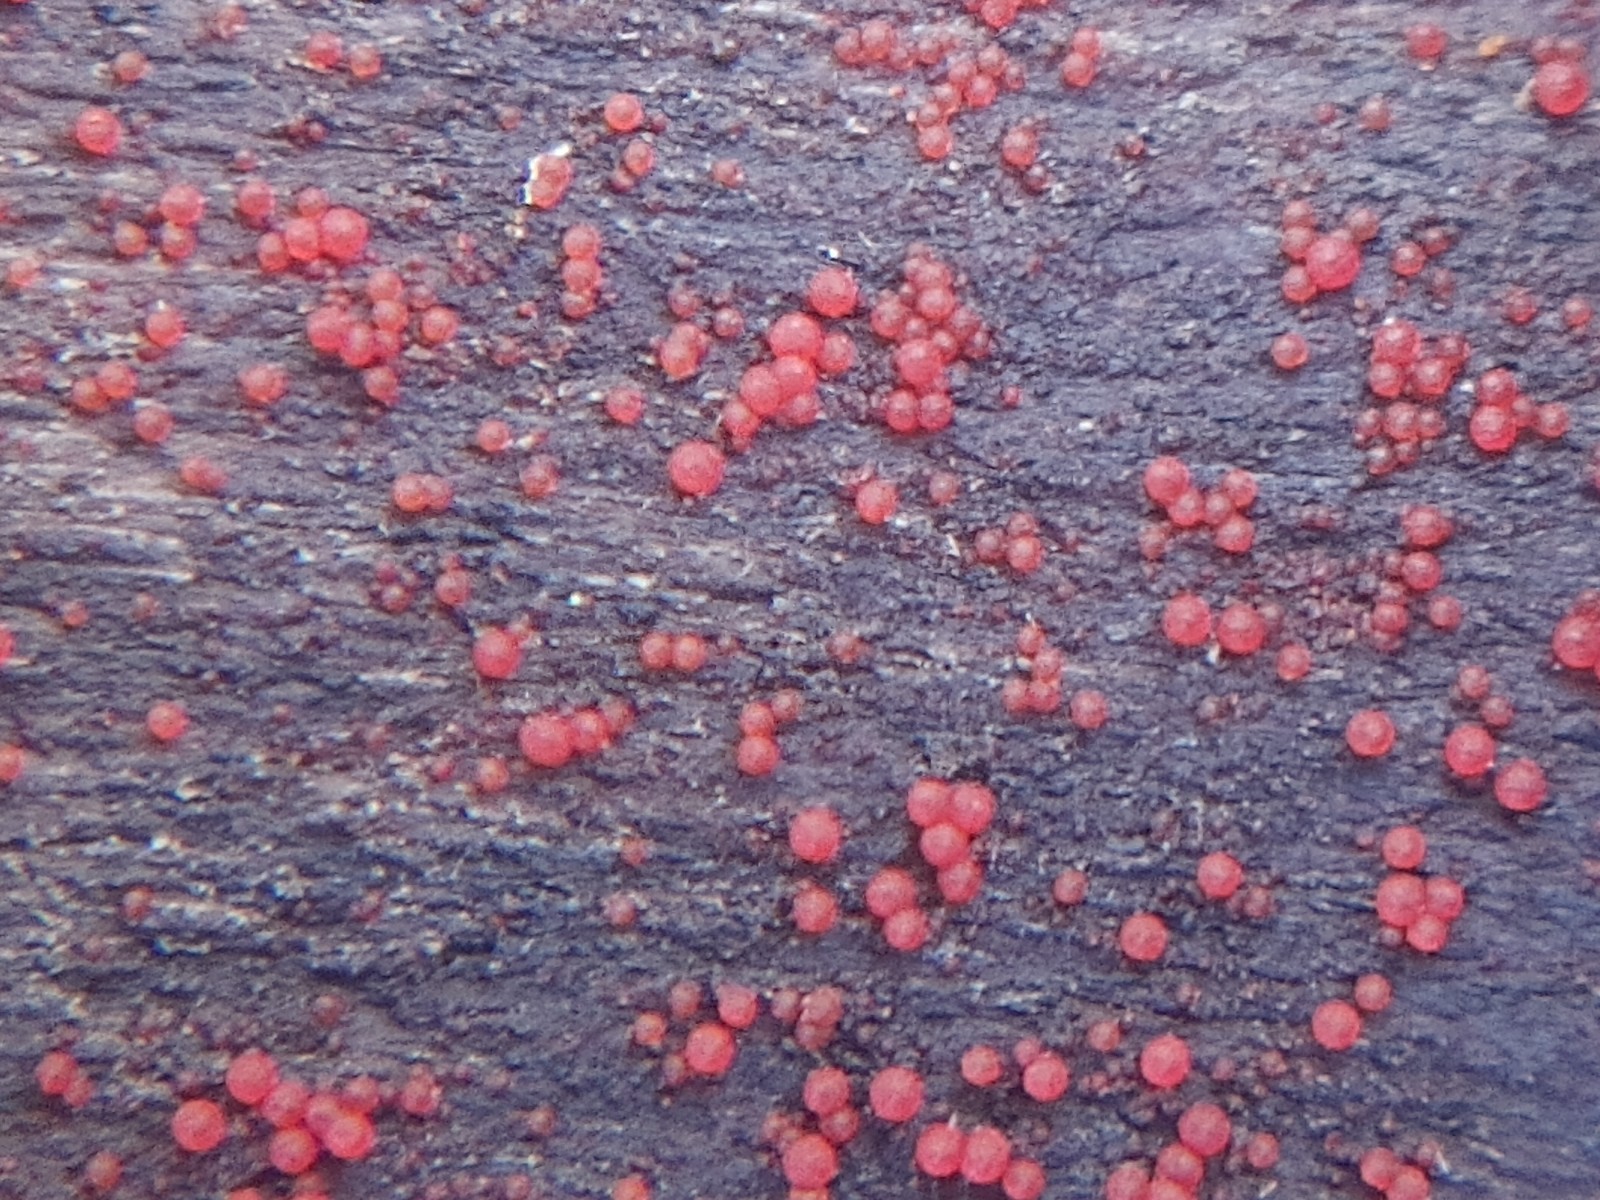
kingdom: Fungi
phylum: Ascomycota
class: Sordariomycetes
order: Hypocreales
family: Nectriaceae
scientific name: Nectriaceae
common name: cinnobersvampfamilien
